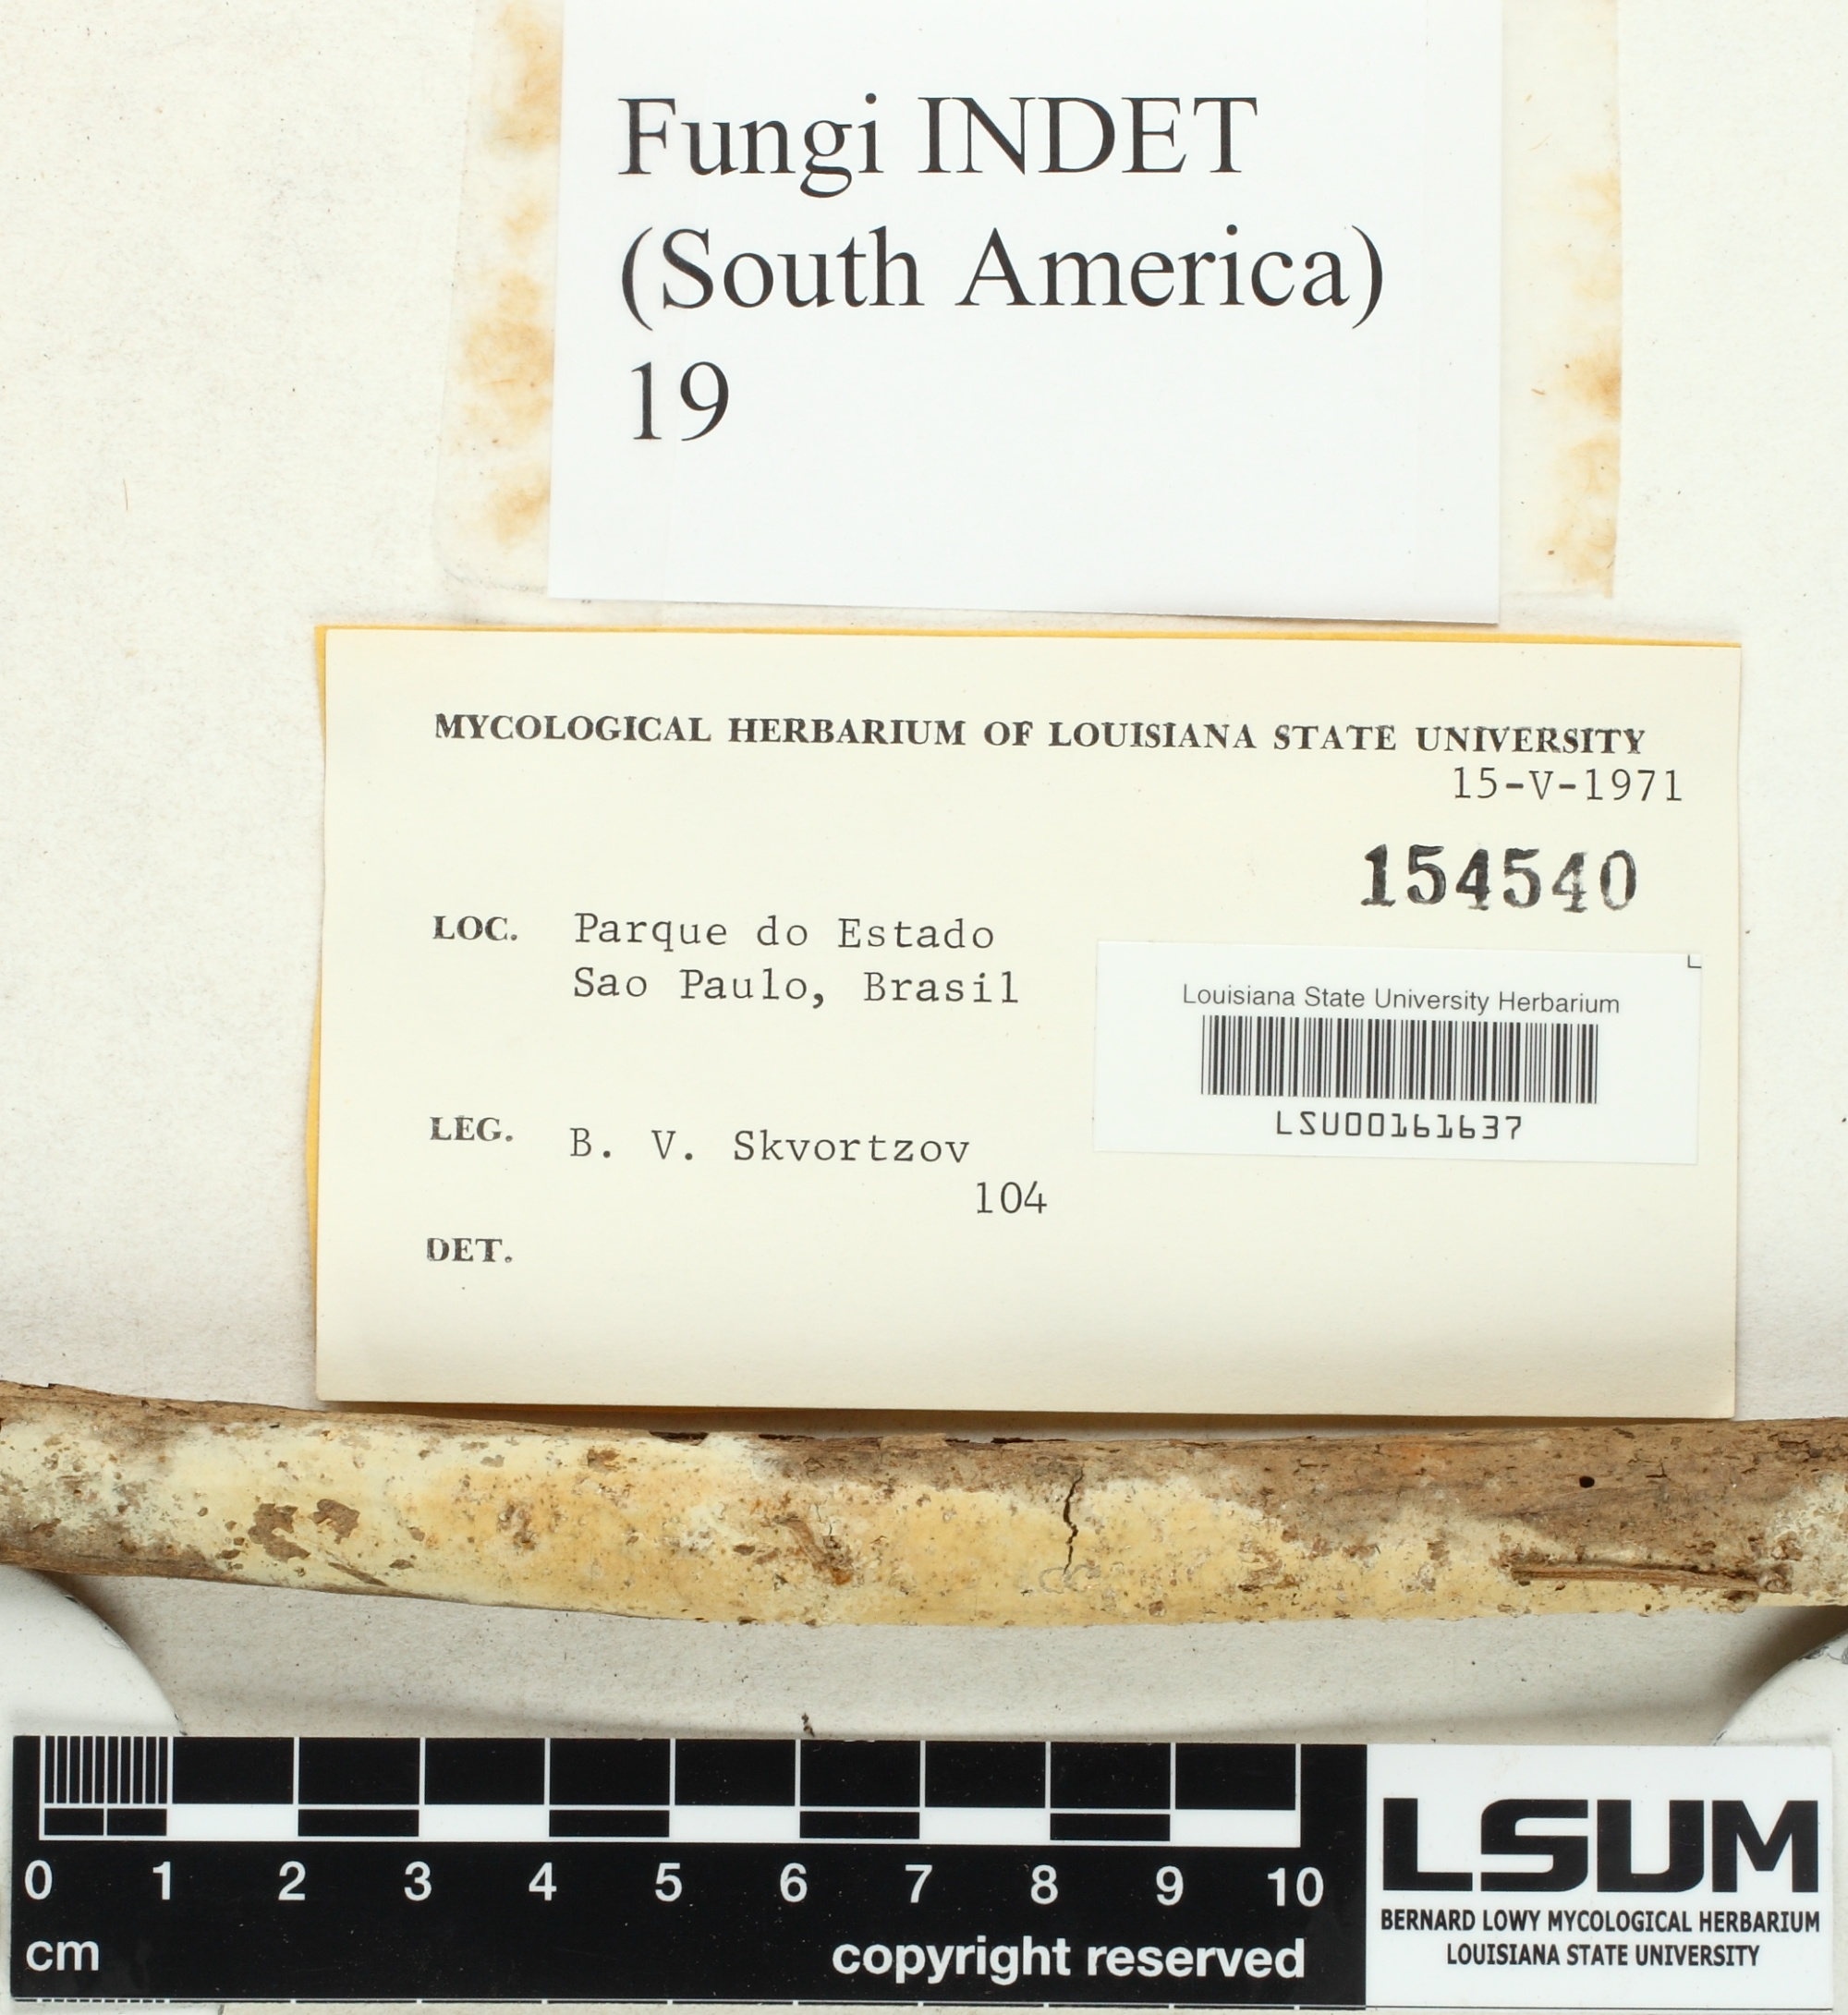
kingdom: Fungi
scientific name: Fungi
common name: Fungi
